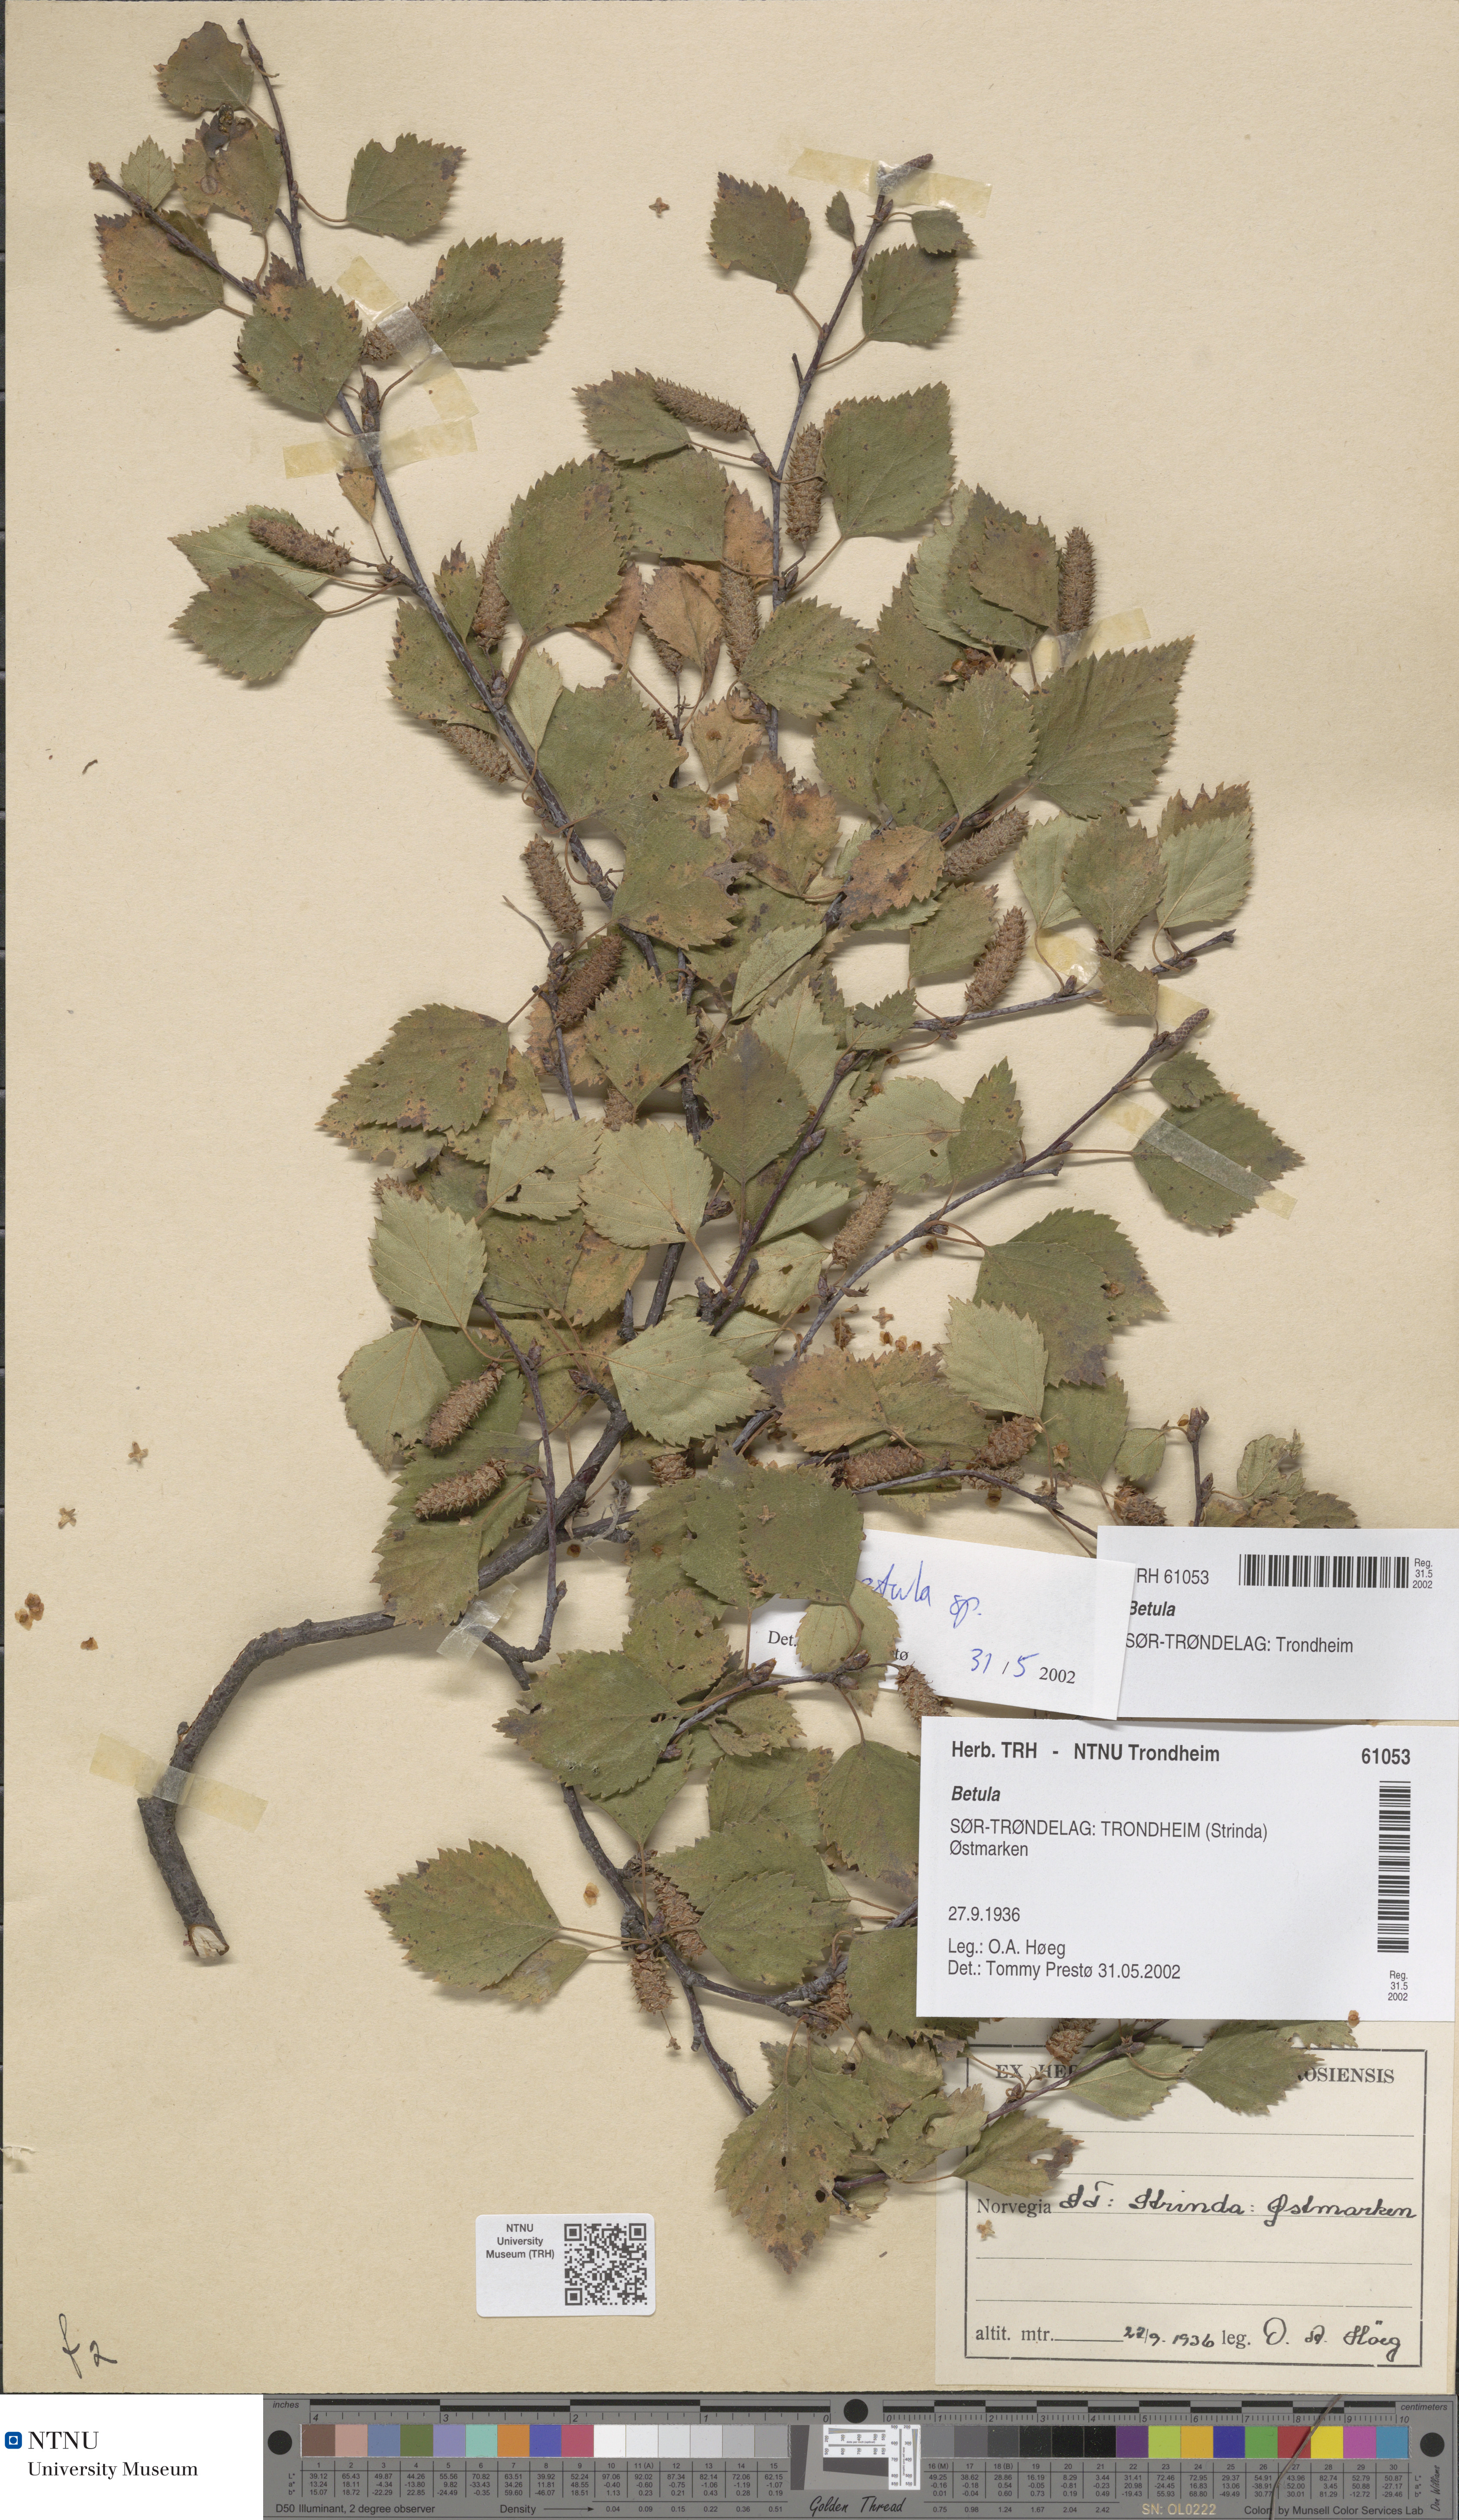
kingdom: Plantae
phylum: Tracheophyta
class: Magnoliopsida
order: Fagales
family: Betulaceae
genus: Betula
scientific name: Betula
